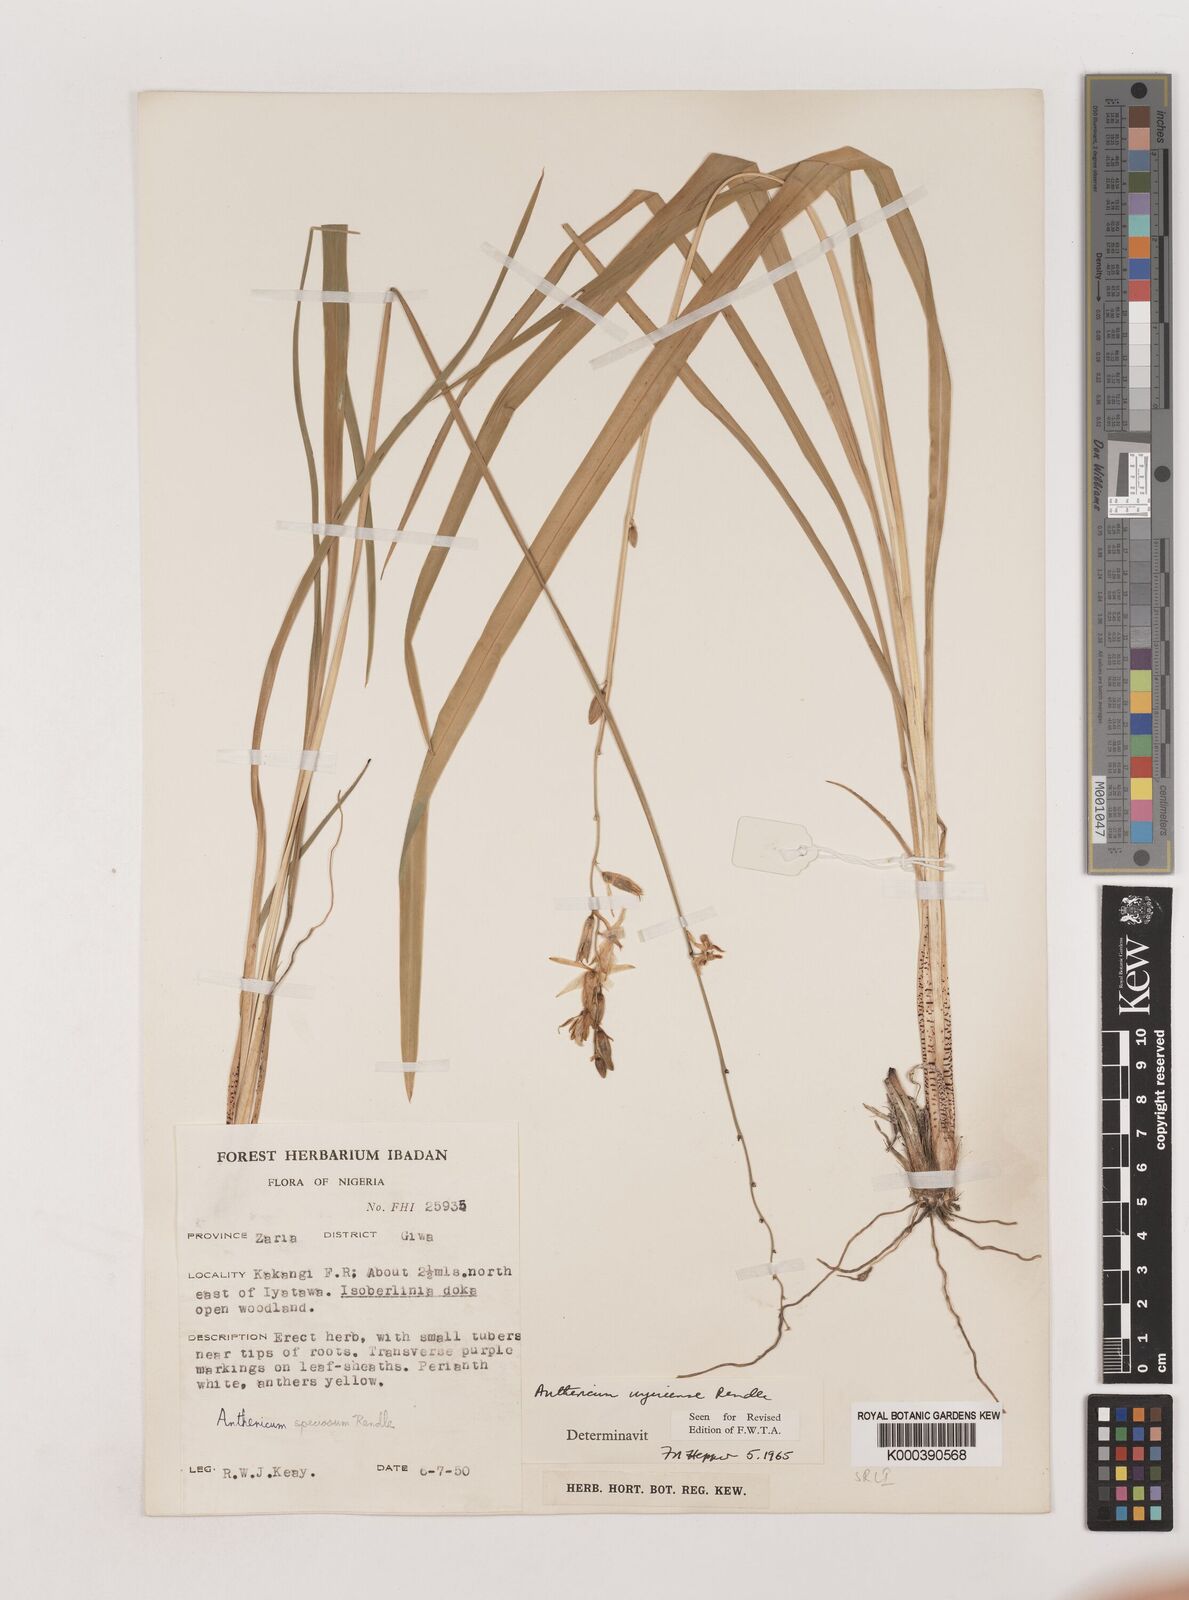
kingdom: Plantae
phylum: Tracheophyta
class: Liliopsida
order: Asparagales
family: Asparagaceae
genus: Chlorophytum
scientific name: Chlorophytum cameronii
